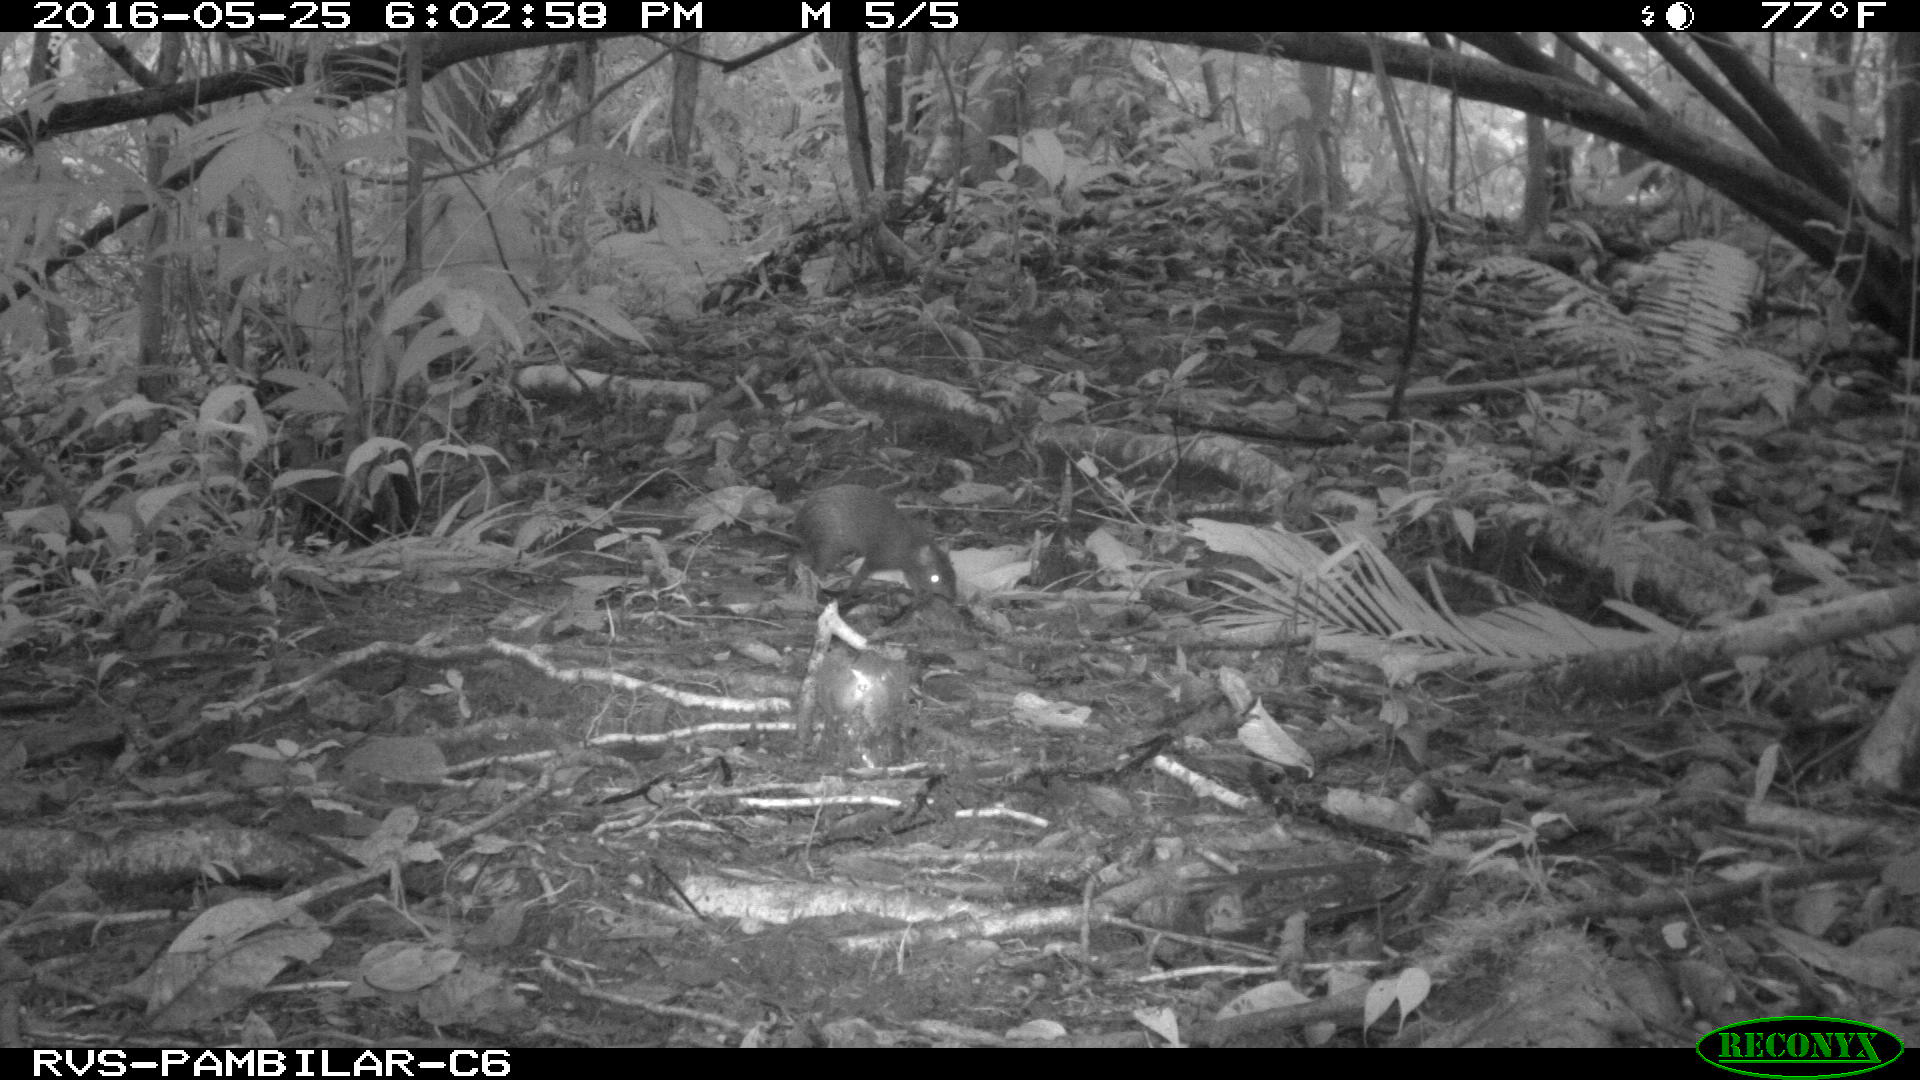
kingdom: Animalia
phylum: Chordata
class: Mammalia
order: Rodentia
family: Dasyproctidae
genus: Dasyprocta
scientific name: Dasyprocta punctata
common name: Central american agouti
